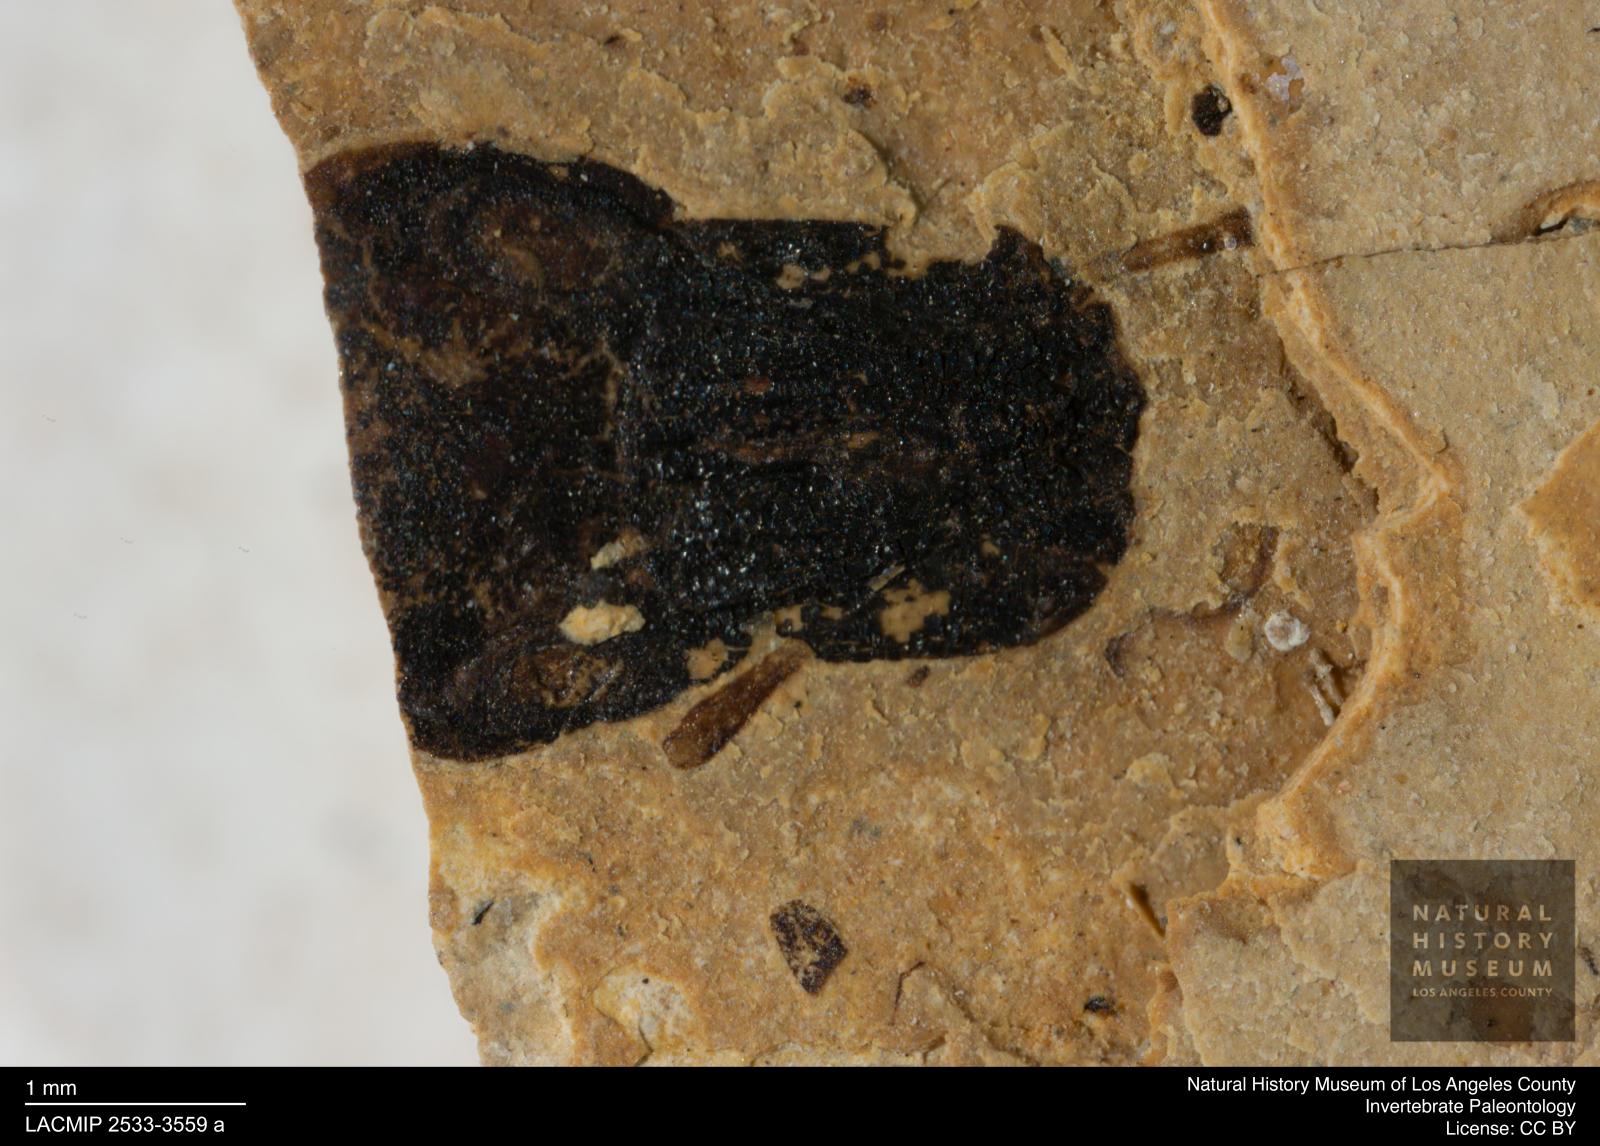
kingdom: Animalia
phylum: Arthropoda
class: Insecta
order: Coleoptera
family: Curculionidae
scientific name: Curculionidae
